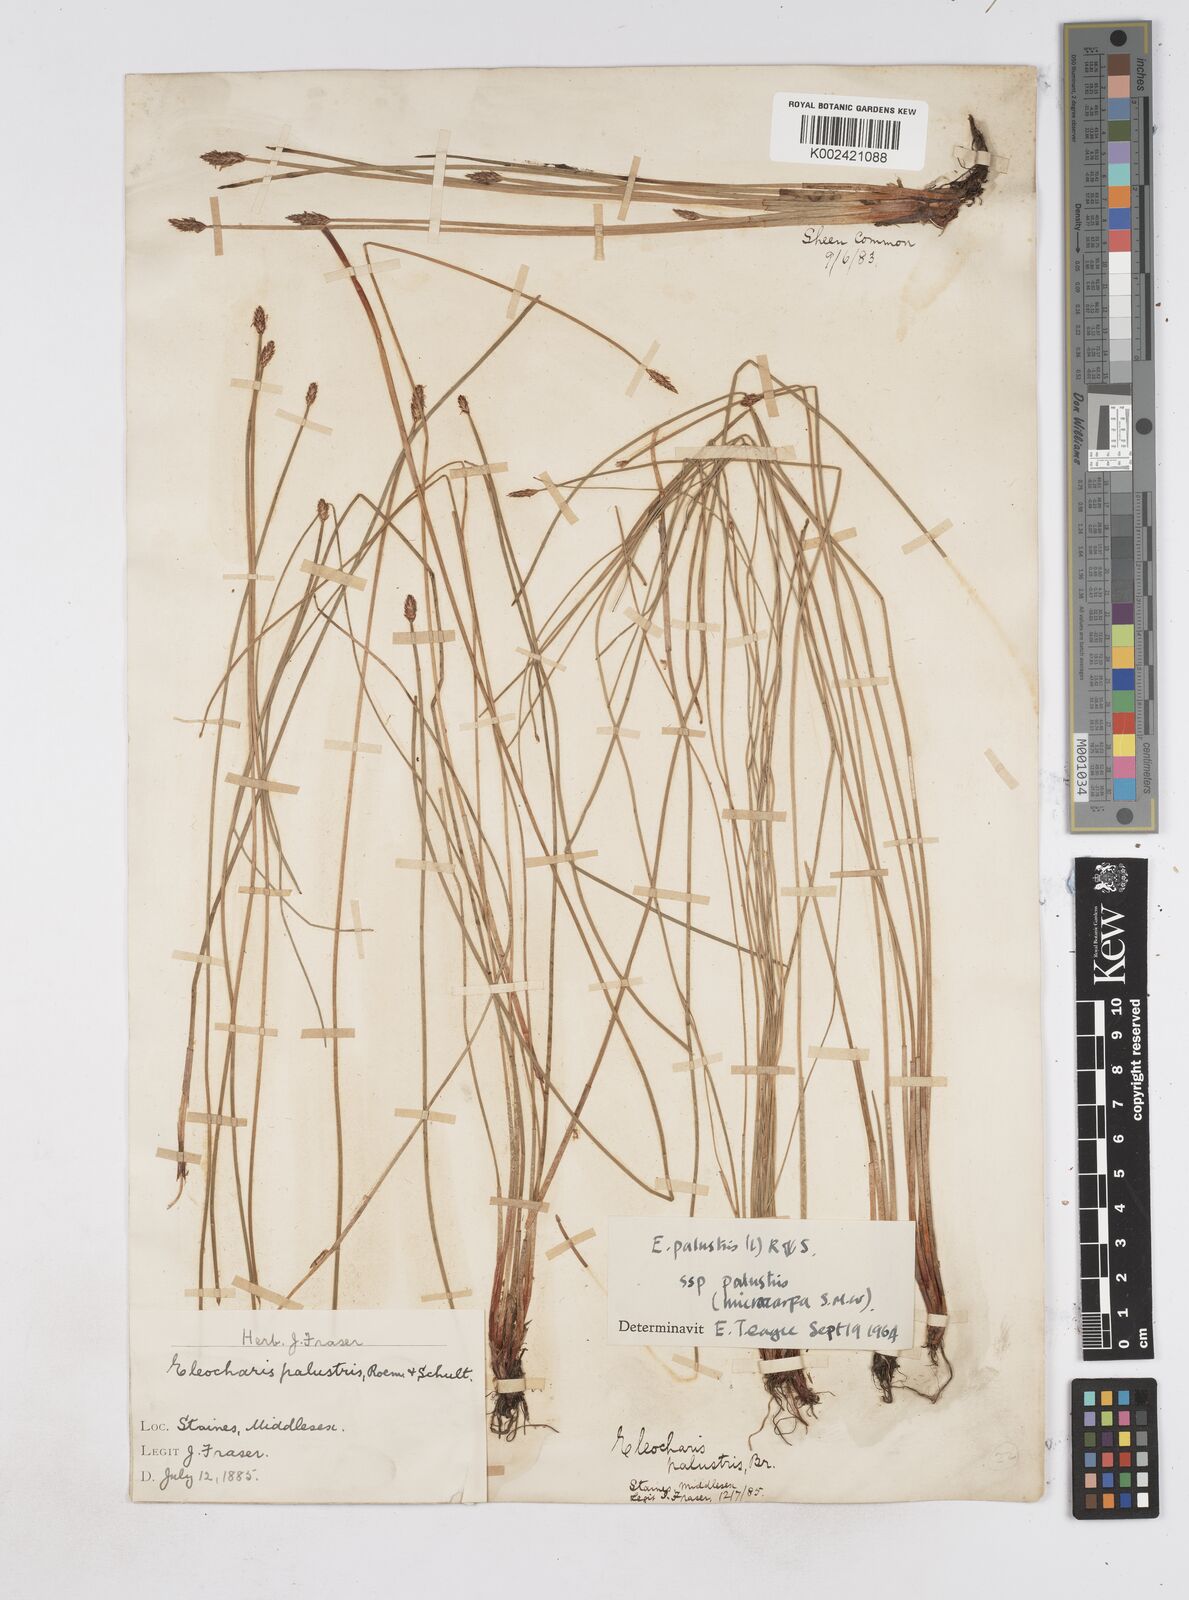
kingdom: Plantae
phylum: Tracheophyta
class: Liliopsida
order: Poales
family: Cyperaceae
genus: Eleocharis
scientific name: Eleocharis palustris
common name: Common spike-rush
